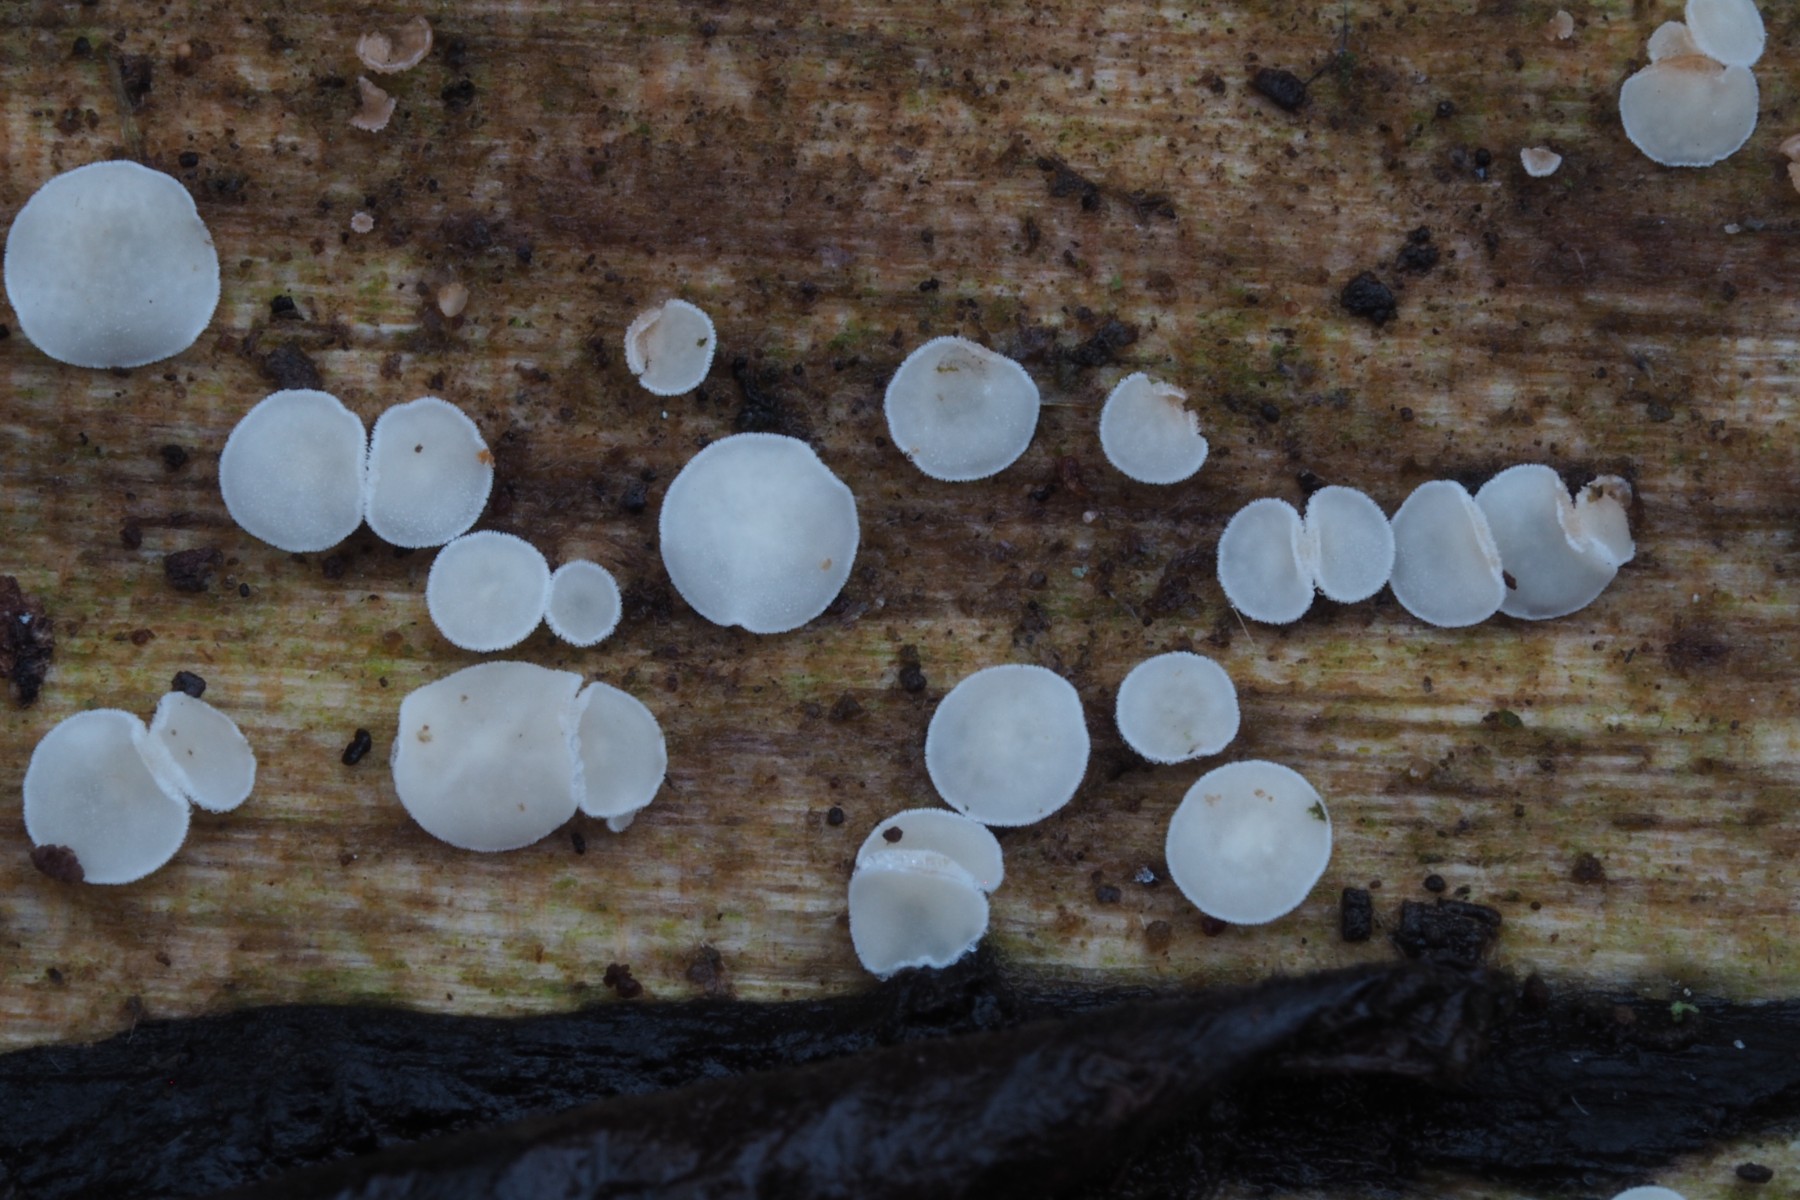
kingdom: Fungi
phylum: Ascomycota
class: Leotiomycetes
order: Helotiales
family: Lachnaceae
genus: Lachnum
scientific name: Lachnum brevipilosum
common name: korthåret frynseskive
